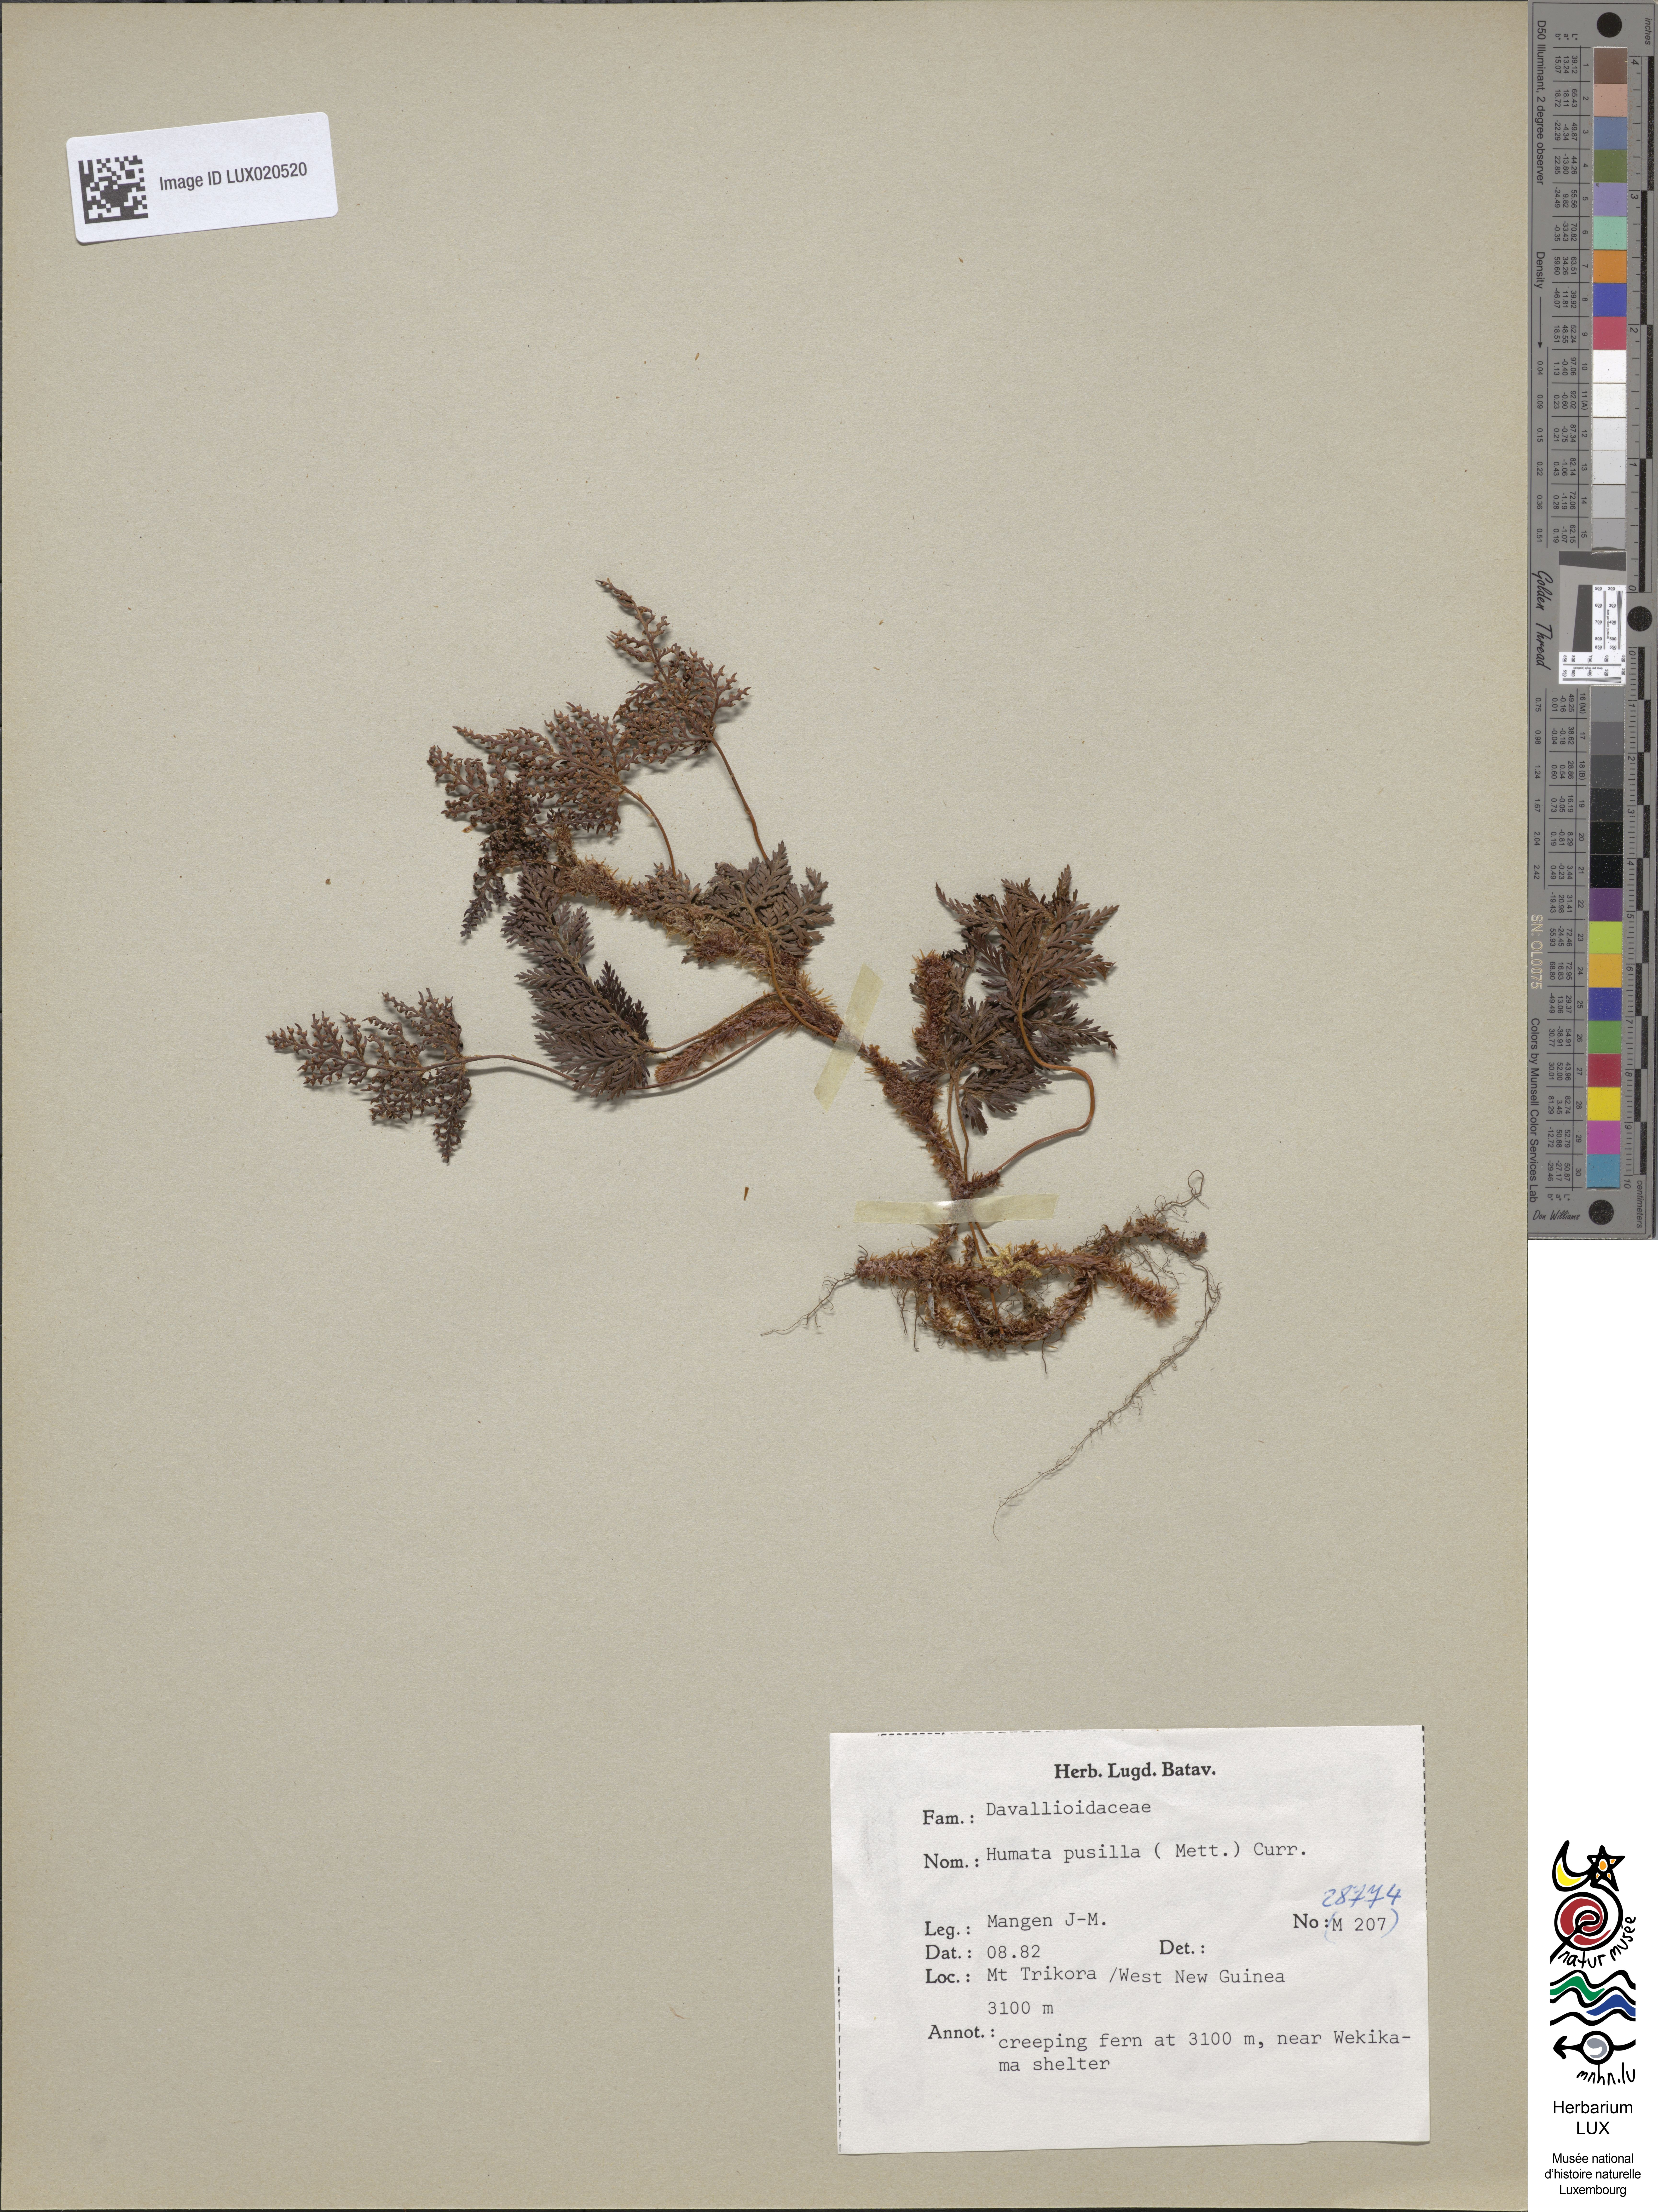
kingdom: Plantae
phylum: Tracheophyta
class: Polypodiopsida
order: Polypodiales
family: Davalliaceae
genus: Davallia
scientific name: Davallia pusilla
